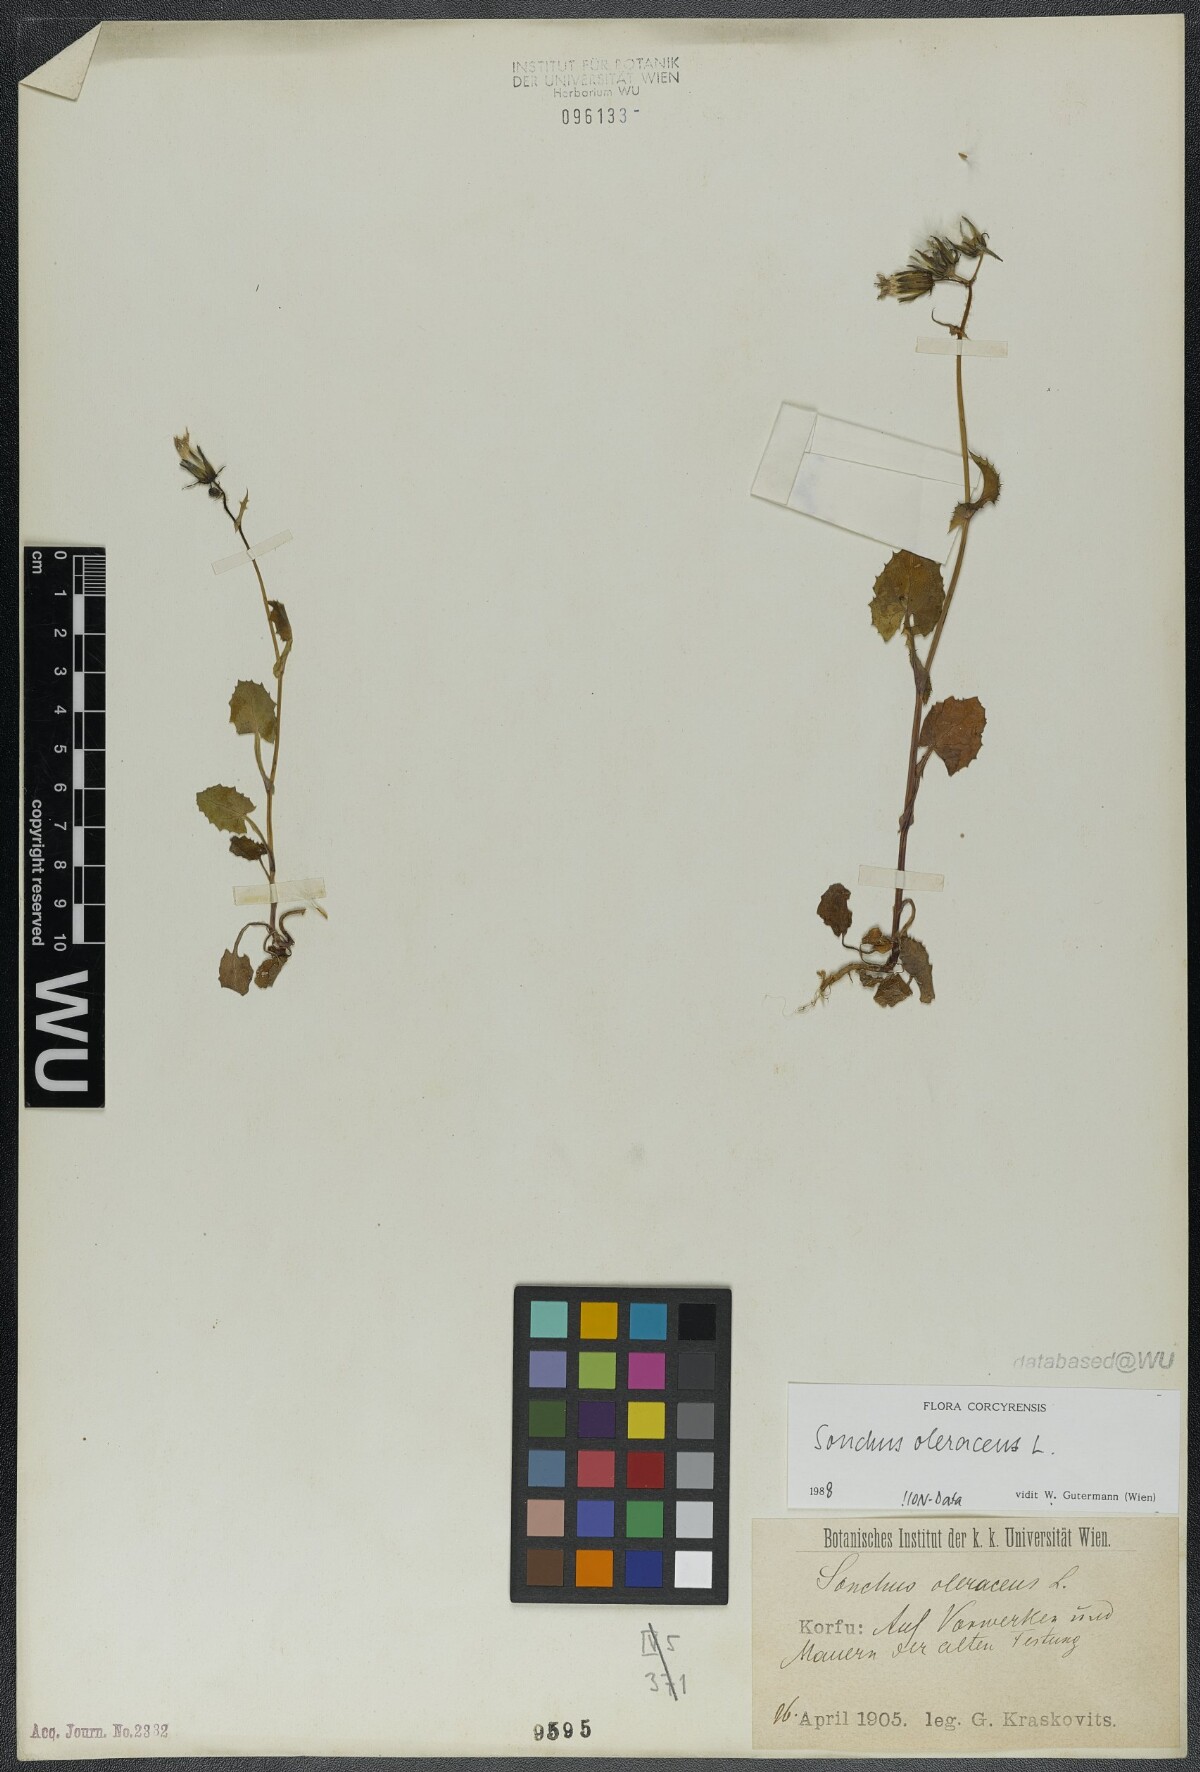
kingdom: Plantae
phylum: Tracheophyta
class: Magnoliopsida
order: Asterales
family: Asteraceae
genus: Sonchus
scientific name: Sonchus oleraceus
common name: Common sowthistle
